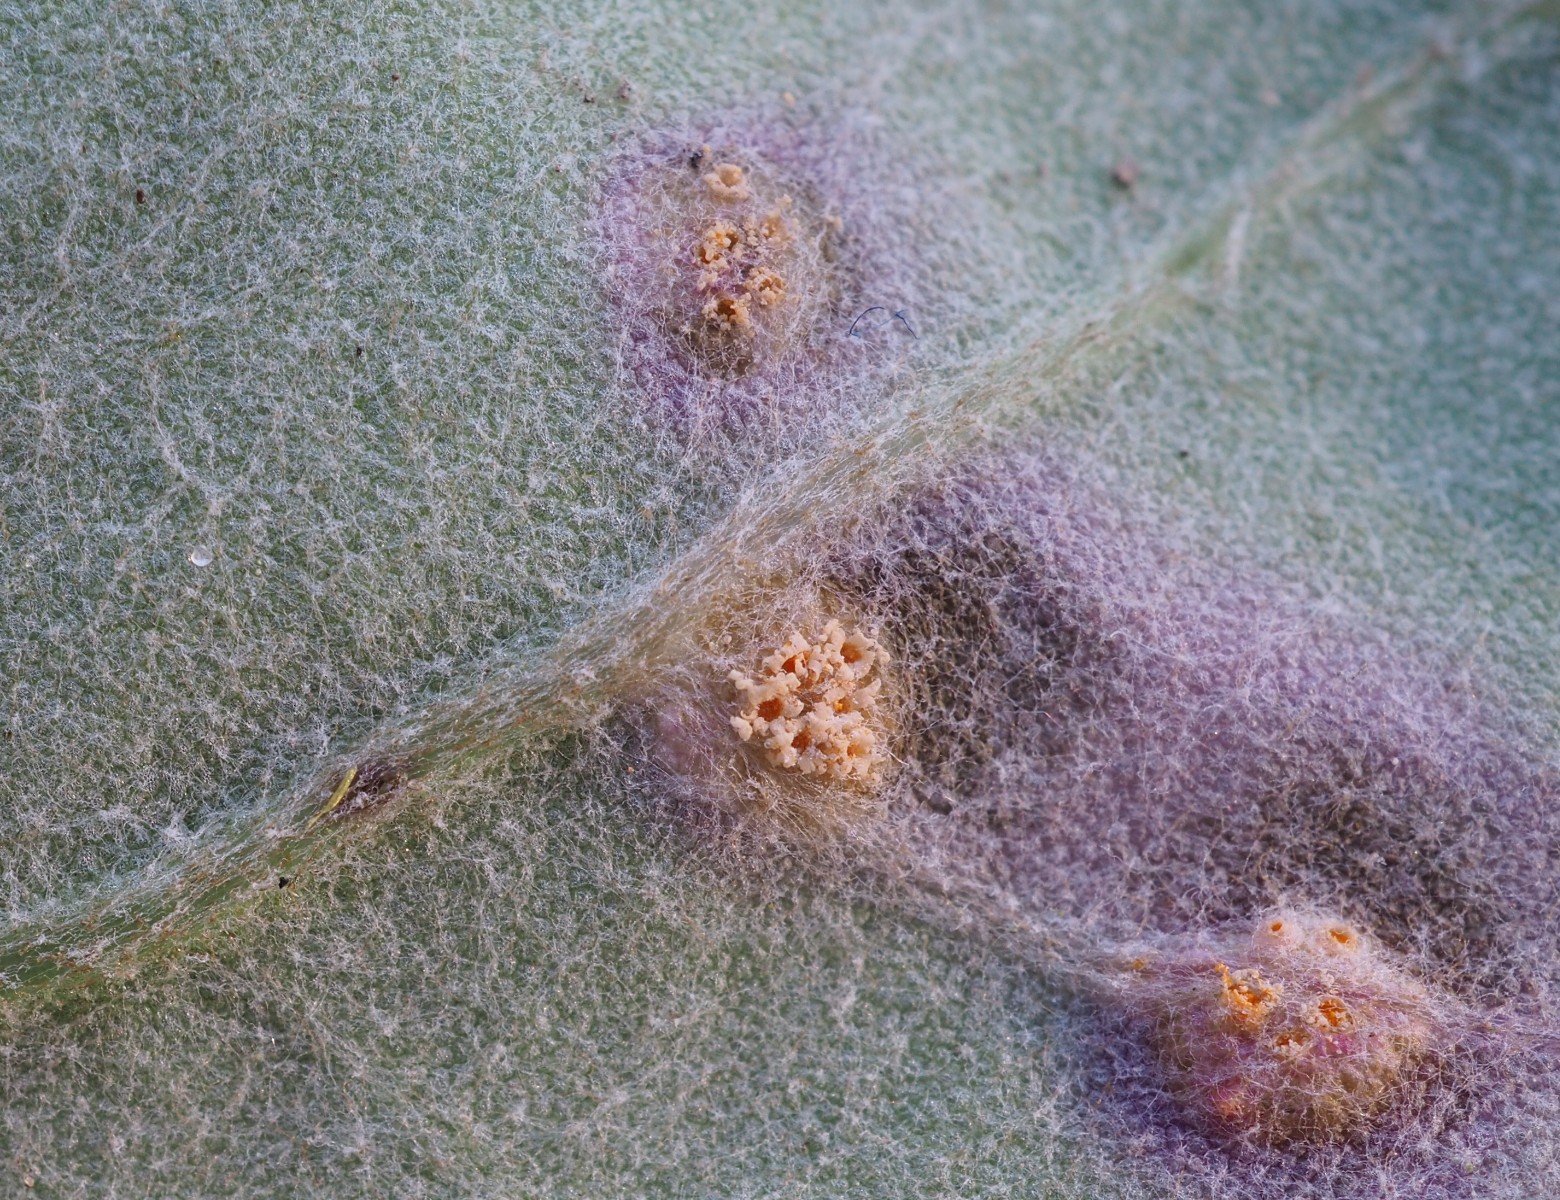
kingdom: Fungi
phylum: Basidiomycota
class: Pucciniomycetes
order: Pucciniales
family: Pucciniaceae
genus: Puccinia
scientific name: Puccinia poarum
